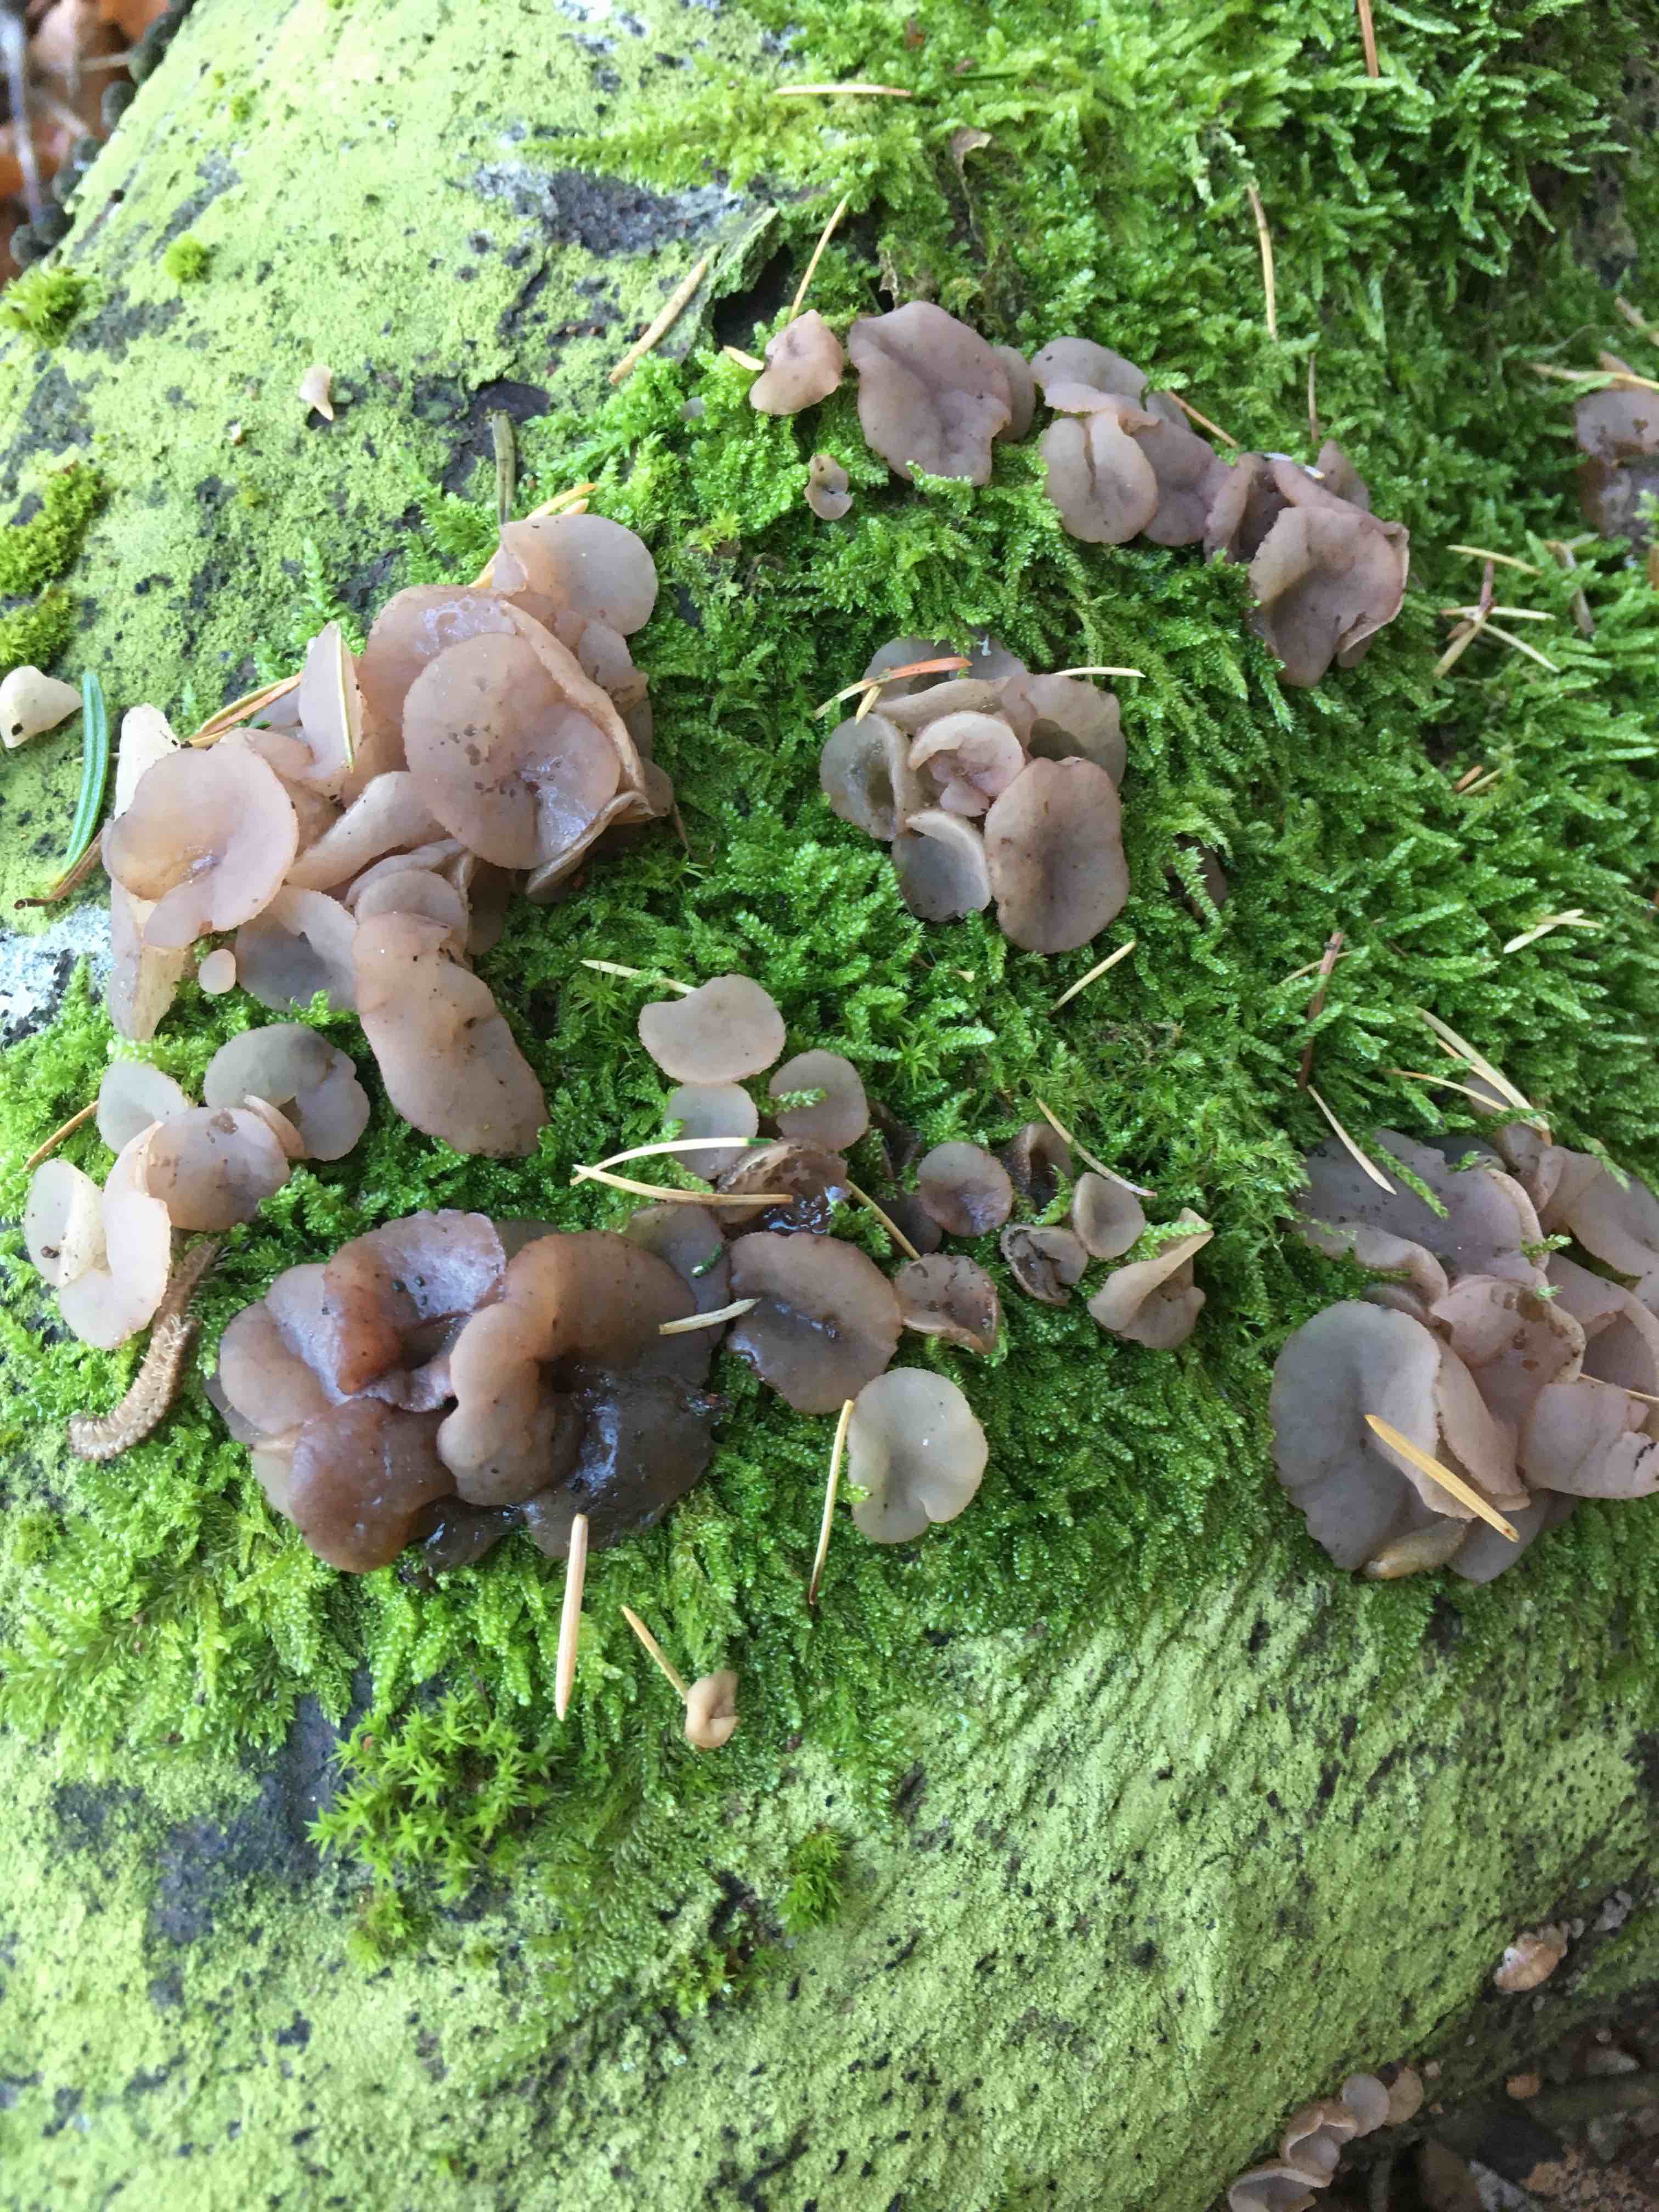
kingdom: Fungi
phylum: Ascomycota
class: Leotiomycetes
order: Helotiales
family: Gelatinodiscaceae
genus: Neobulgaria
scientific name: Neobulgaria pura
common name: bleg bævreskive
